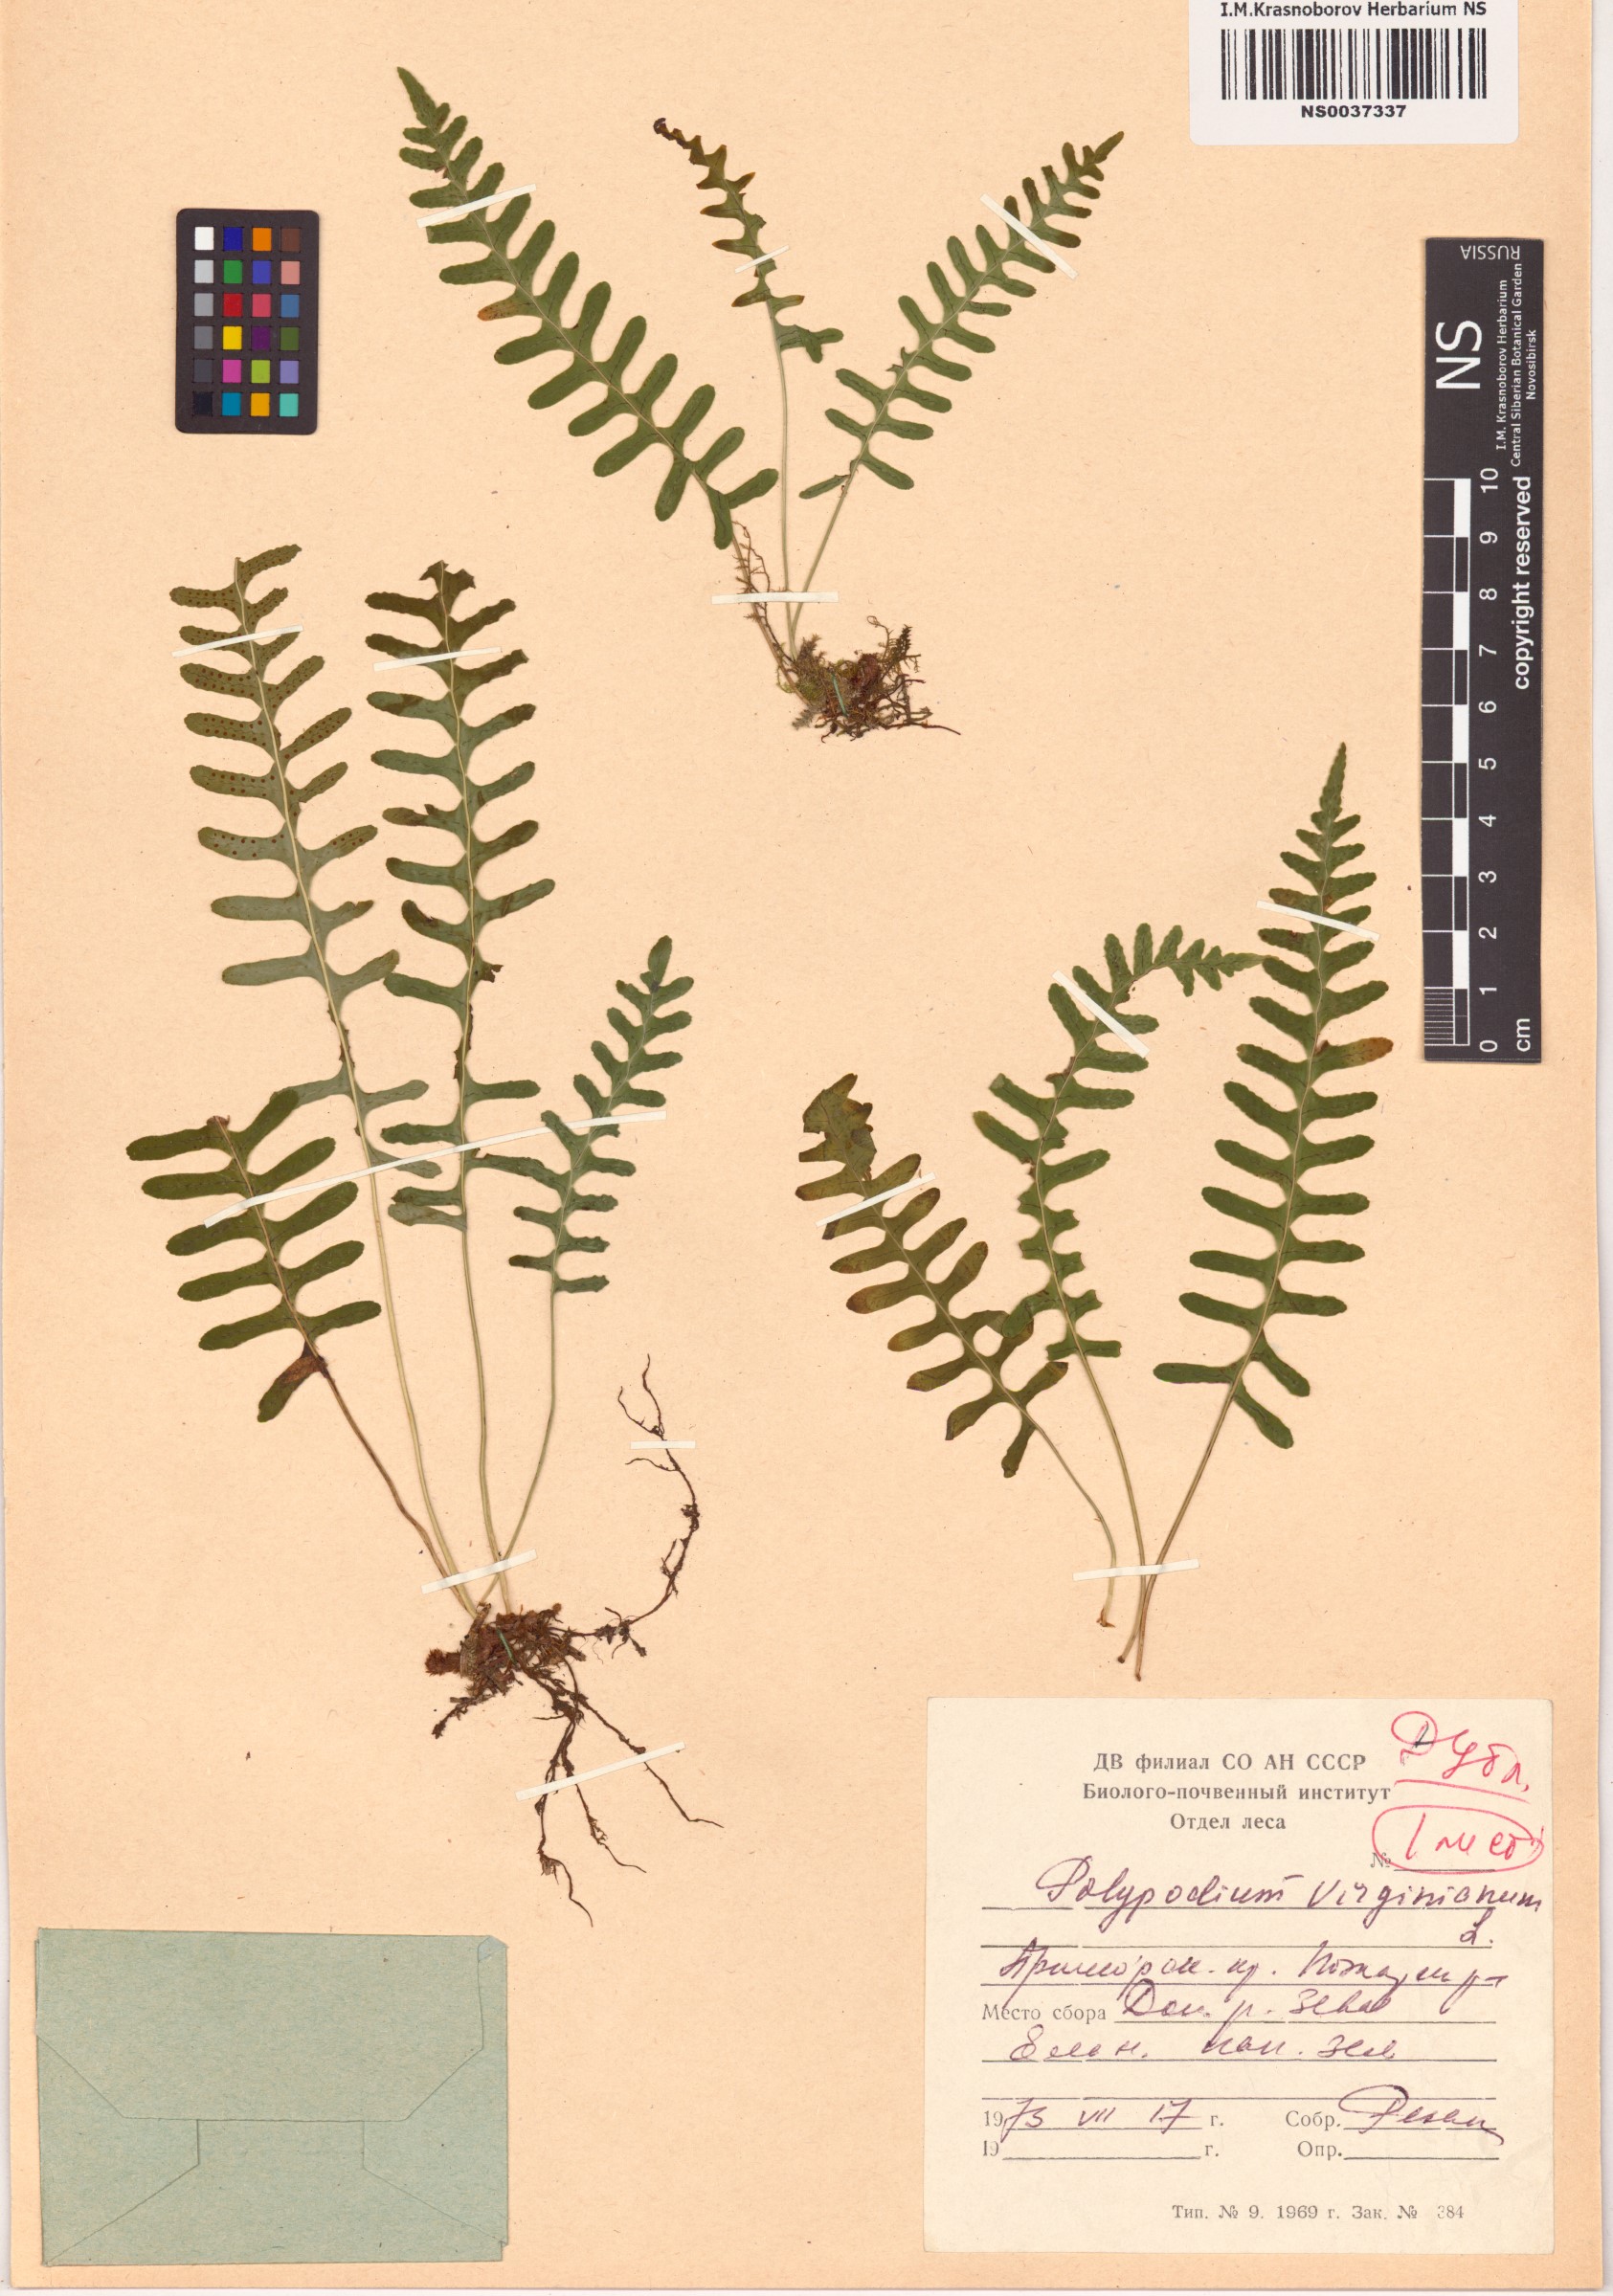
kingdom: Plantae
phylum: Tracheophyta
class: Polypodiopsida
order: Polypodiales
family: Polypodiaceae
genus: Polypodium
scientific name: Polypodium virginianum
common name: American wall fern
